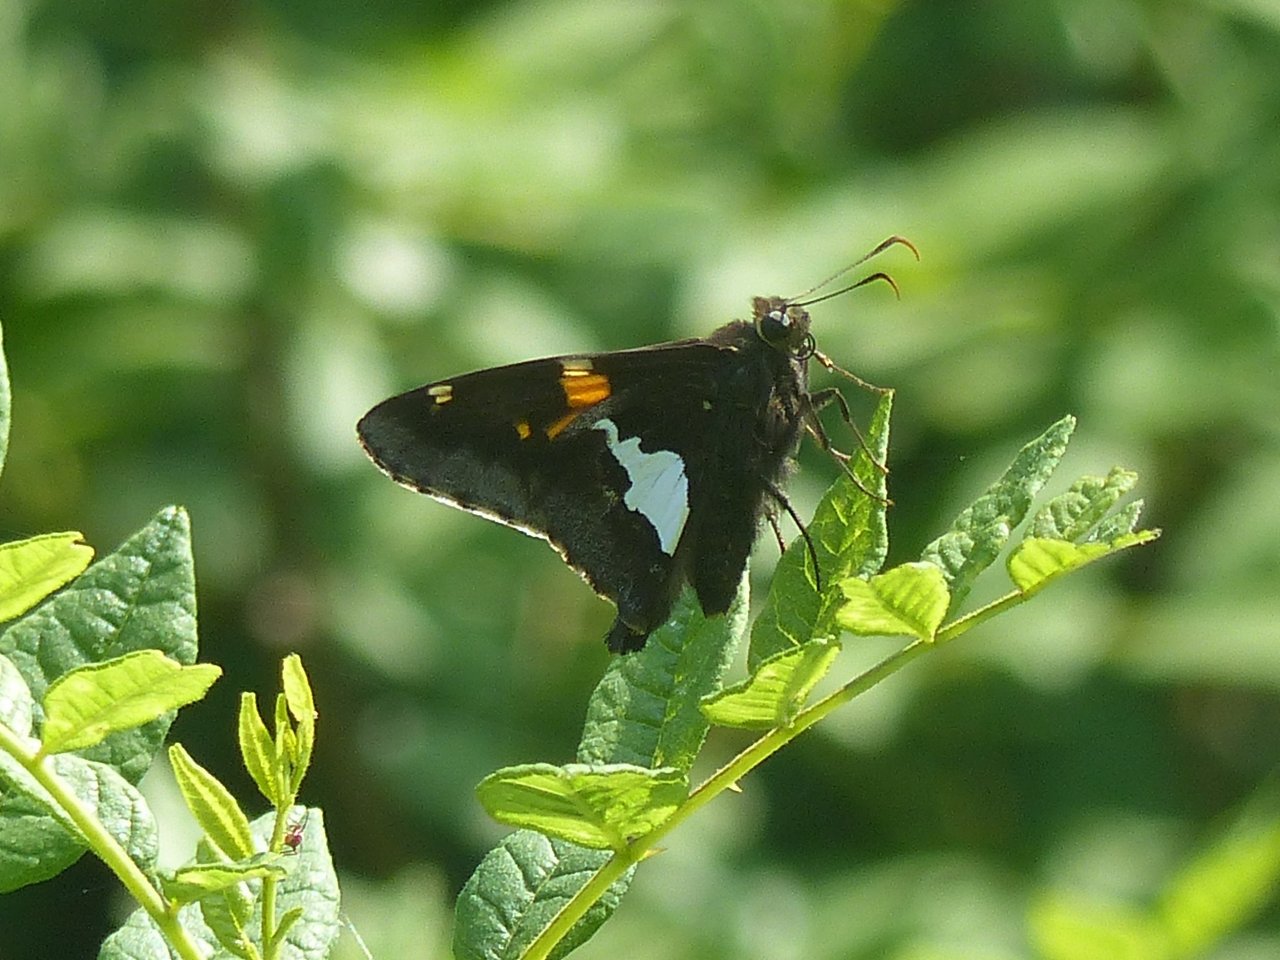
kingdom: Animalia
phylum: Arthropoda
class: Insecta
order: Lepidoptera
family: Hesperiidae
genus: Epargyreus
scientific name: Epargyreus clarus
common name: Silver-spotted Skipper
